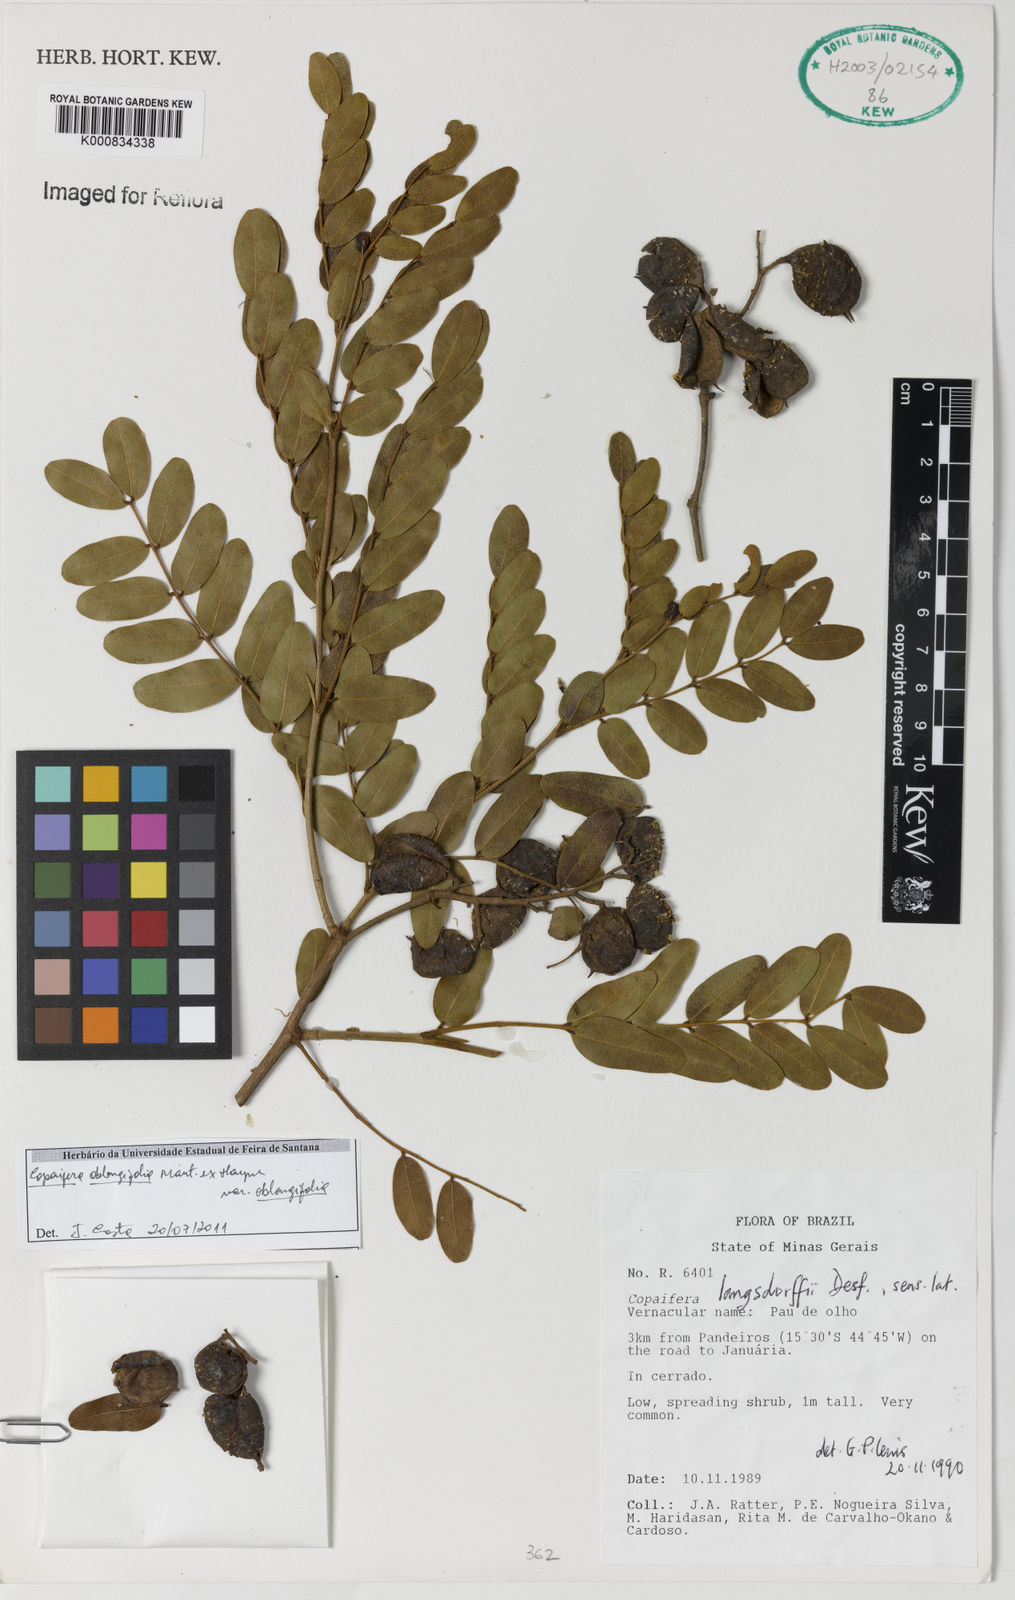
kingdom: Plantae
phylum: Tracheophyta
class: Magnoliopsida
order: Fabales
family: Fabaceae
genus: Copaifera
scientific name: Copaifera oblongifolia
